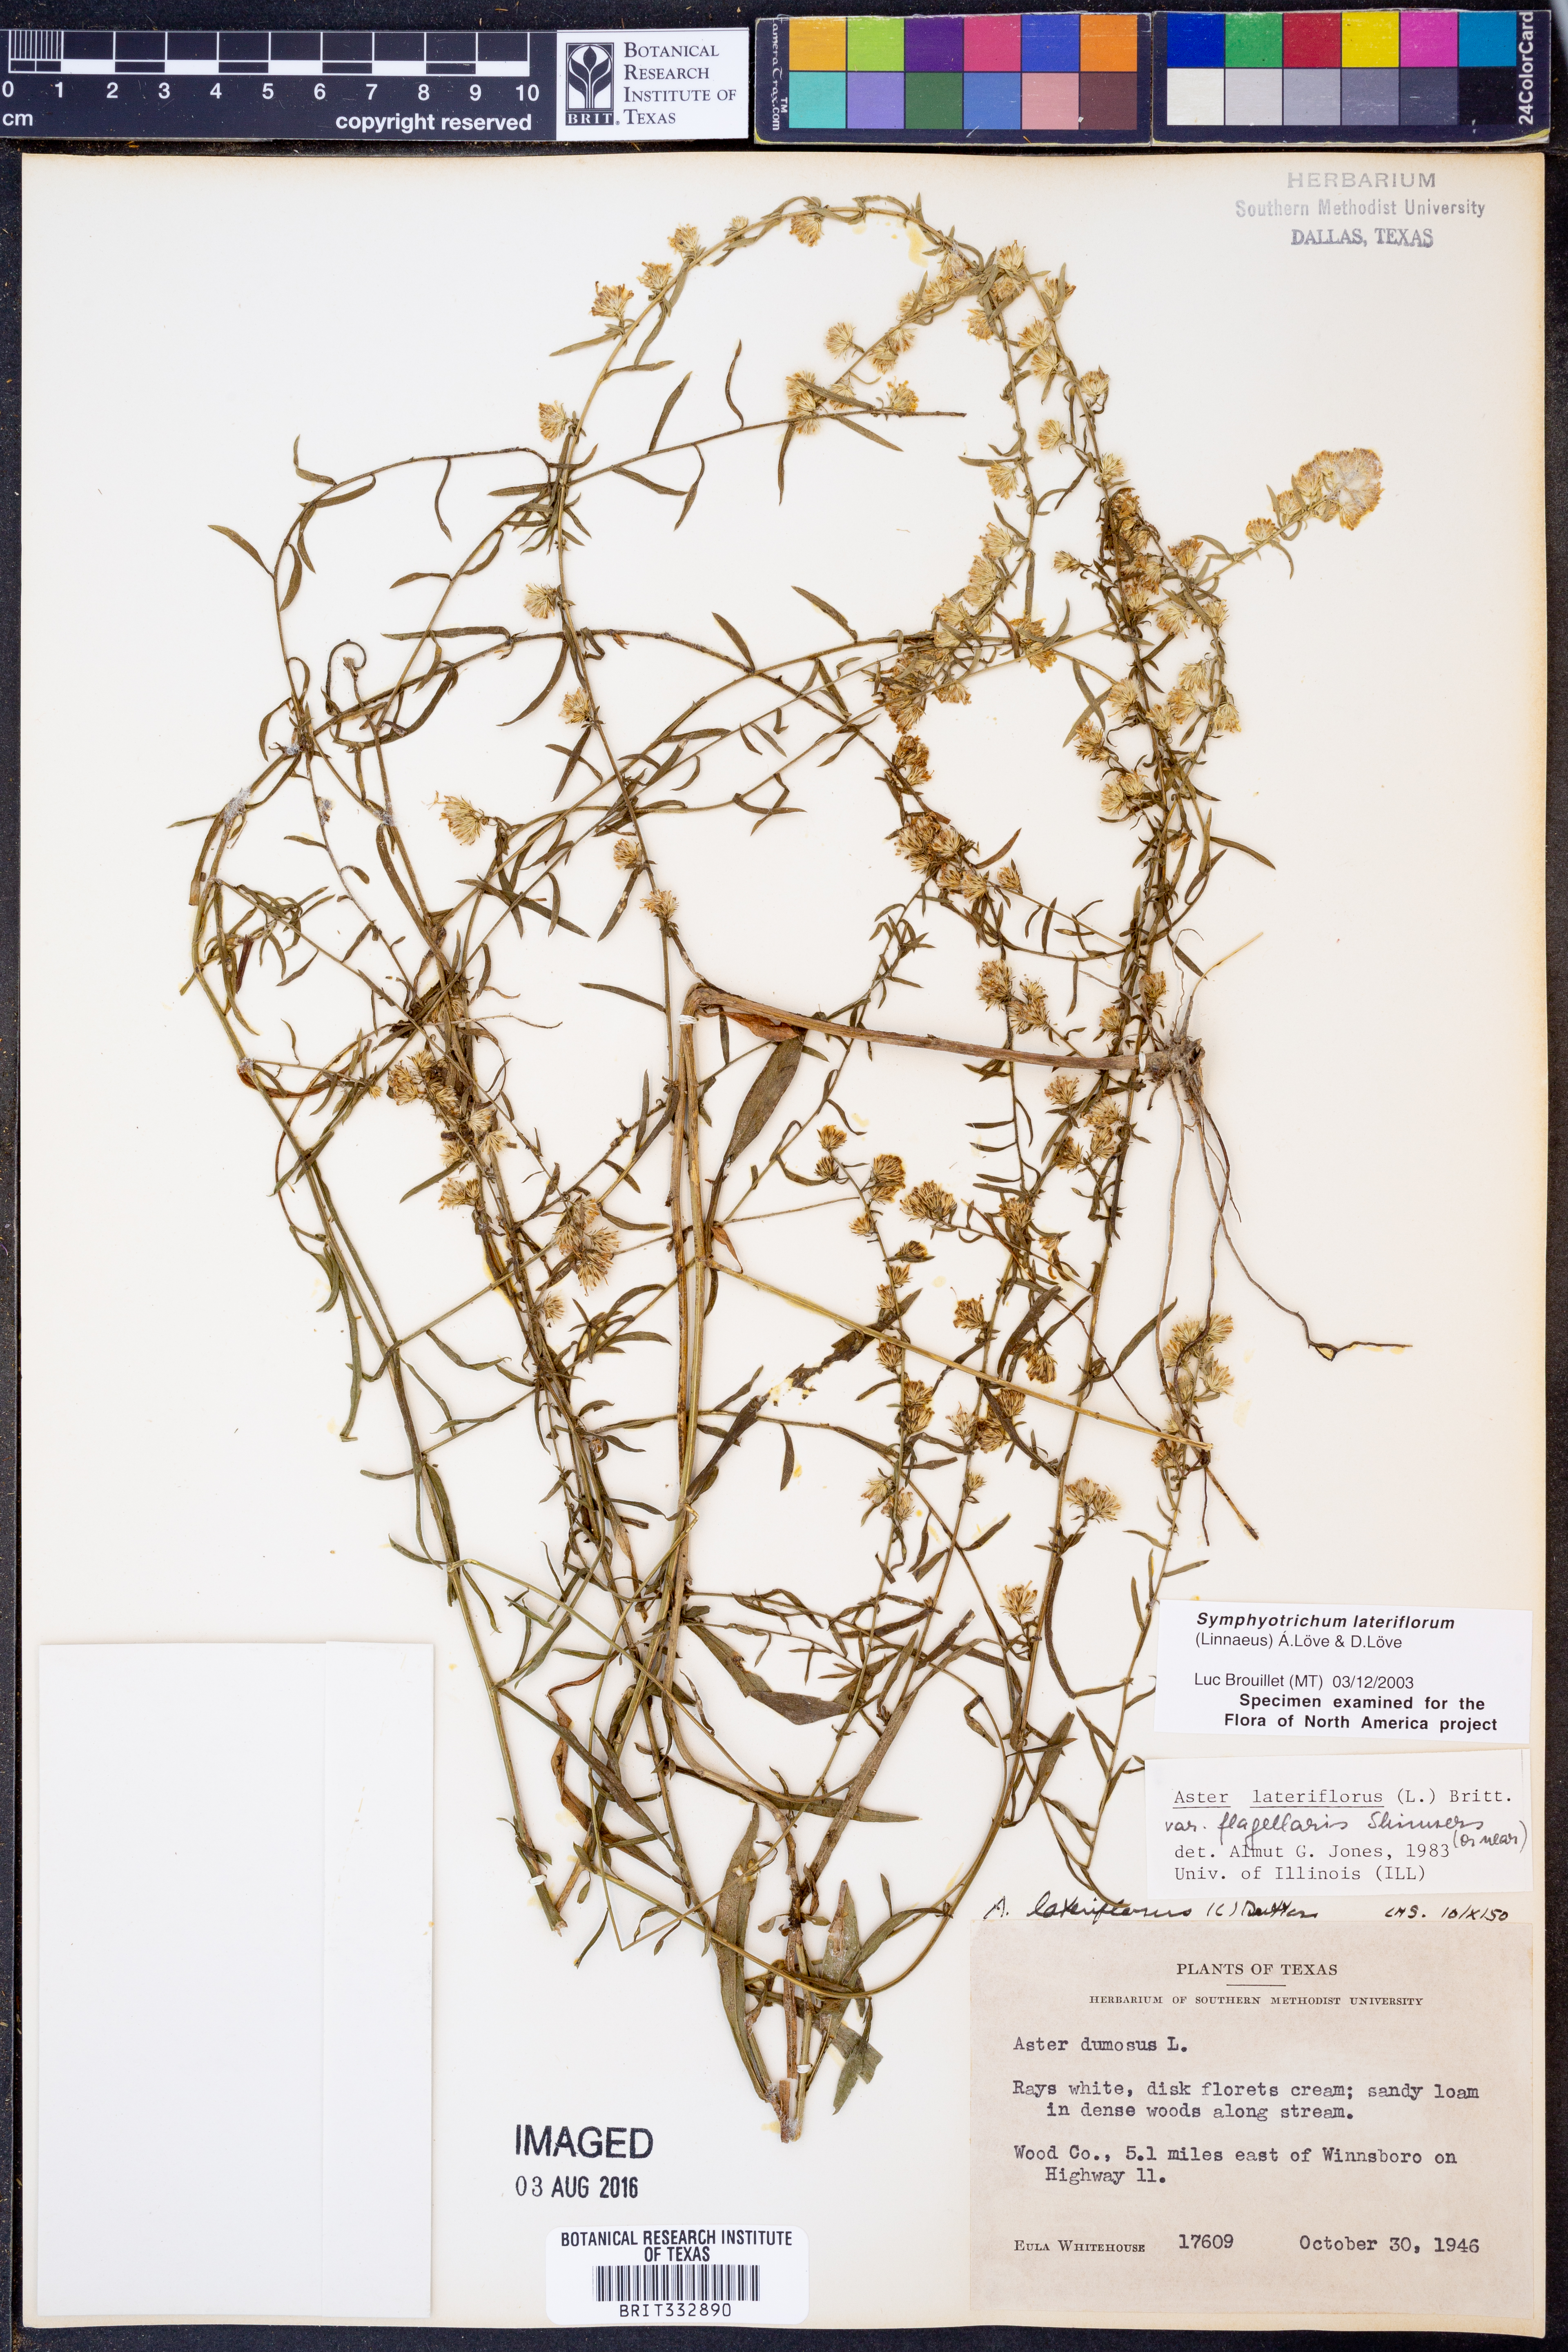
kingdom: Plantae
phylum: Tracheophyta
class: Magnoliopsida
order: Asterales
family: Asteraceae
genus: Symphyotrichum
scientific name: Symphyotrichum lateriflorum
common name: Calico aster
